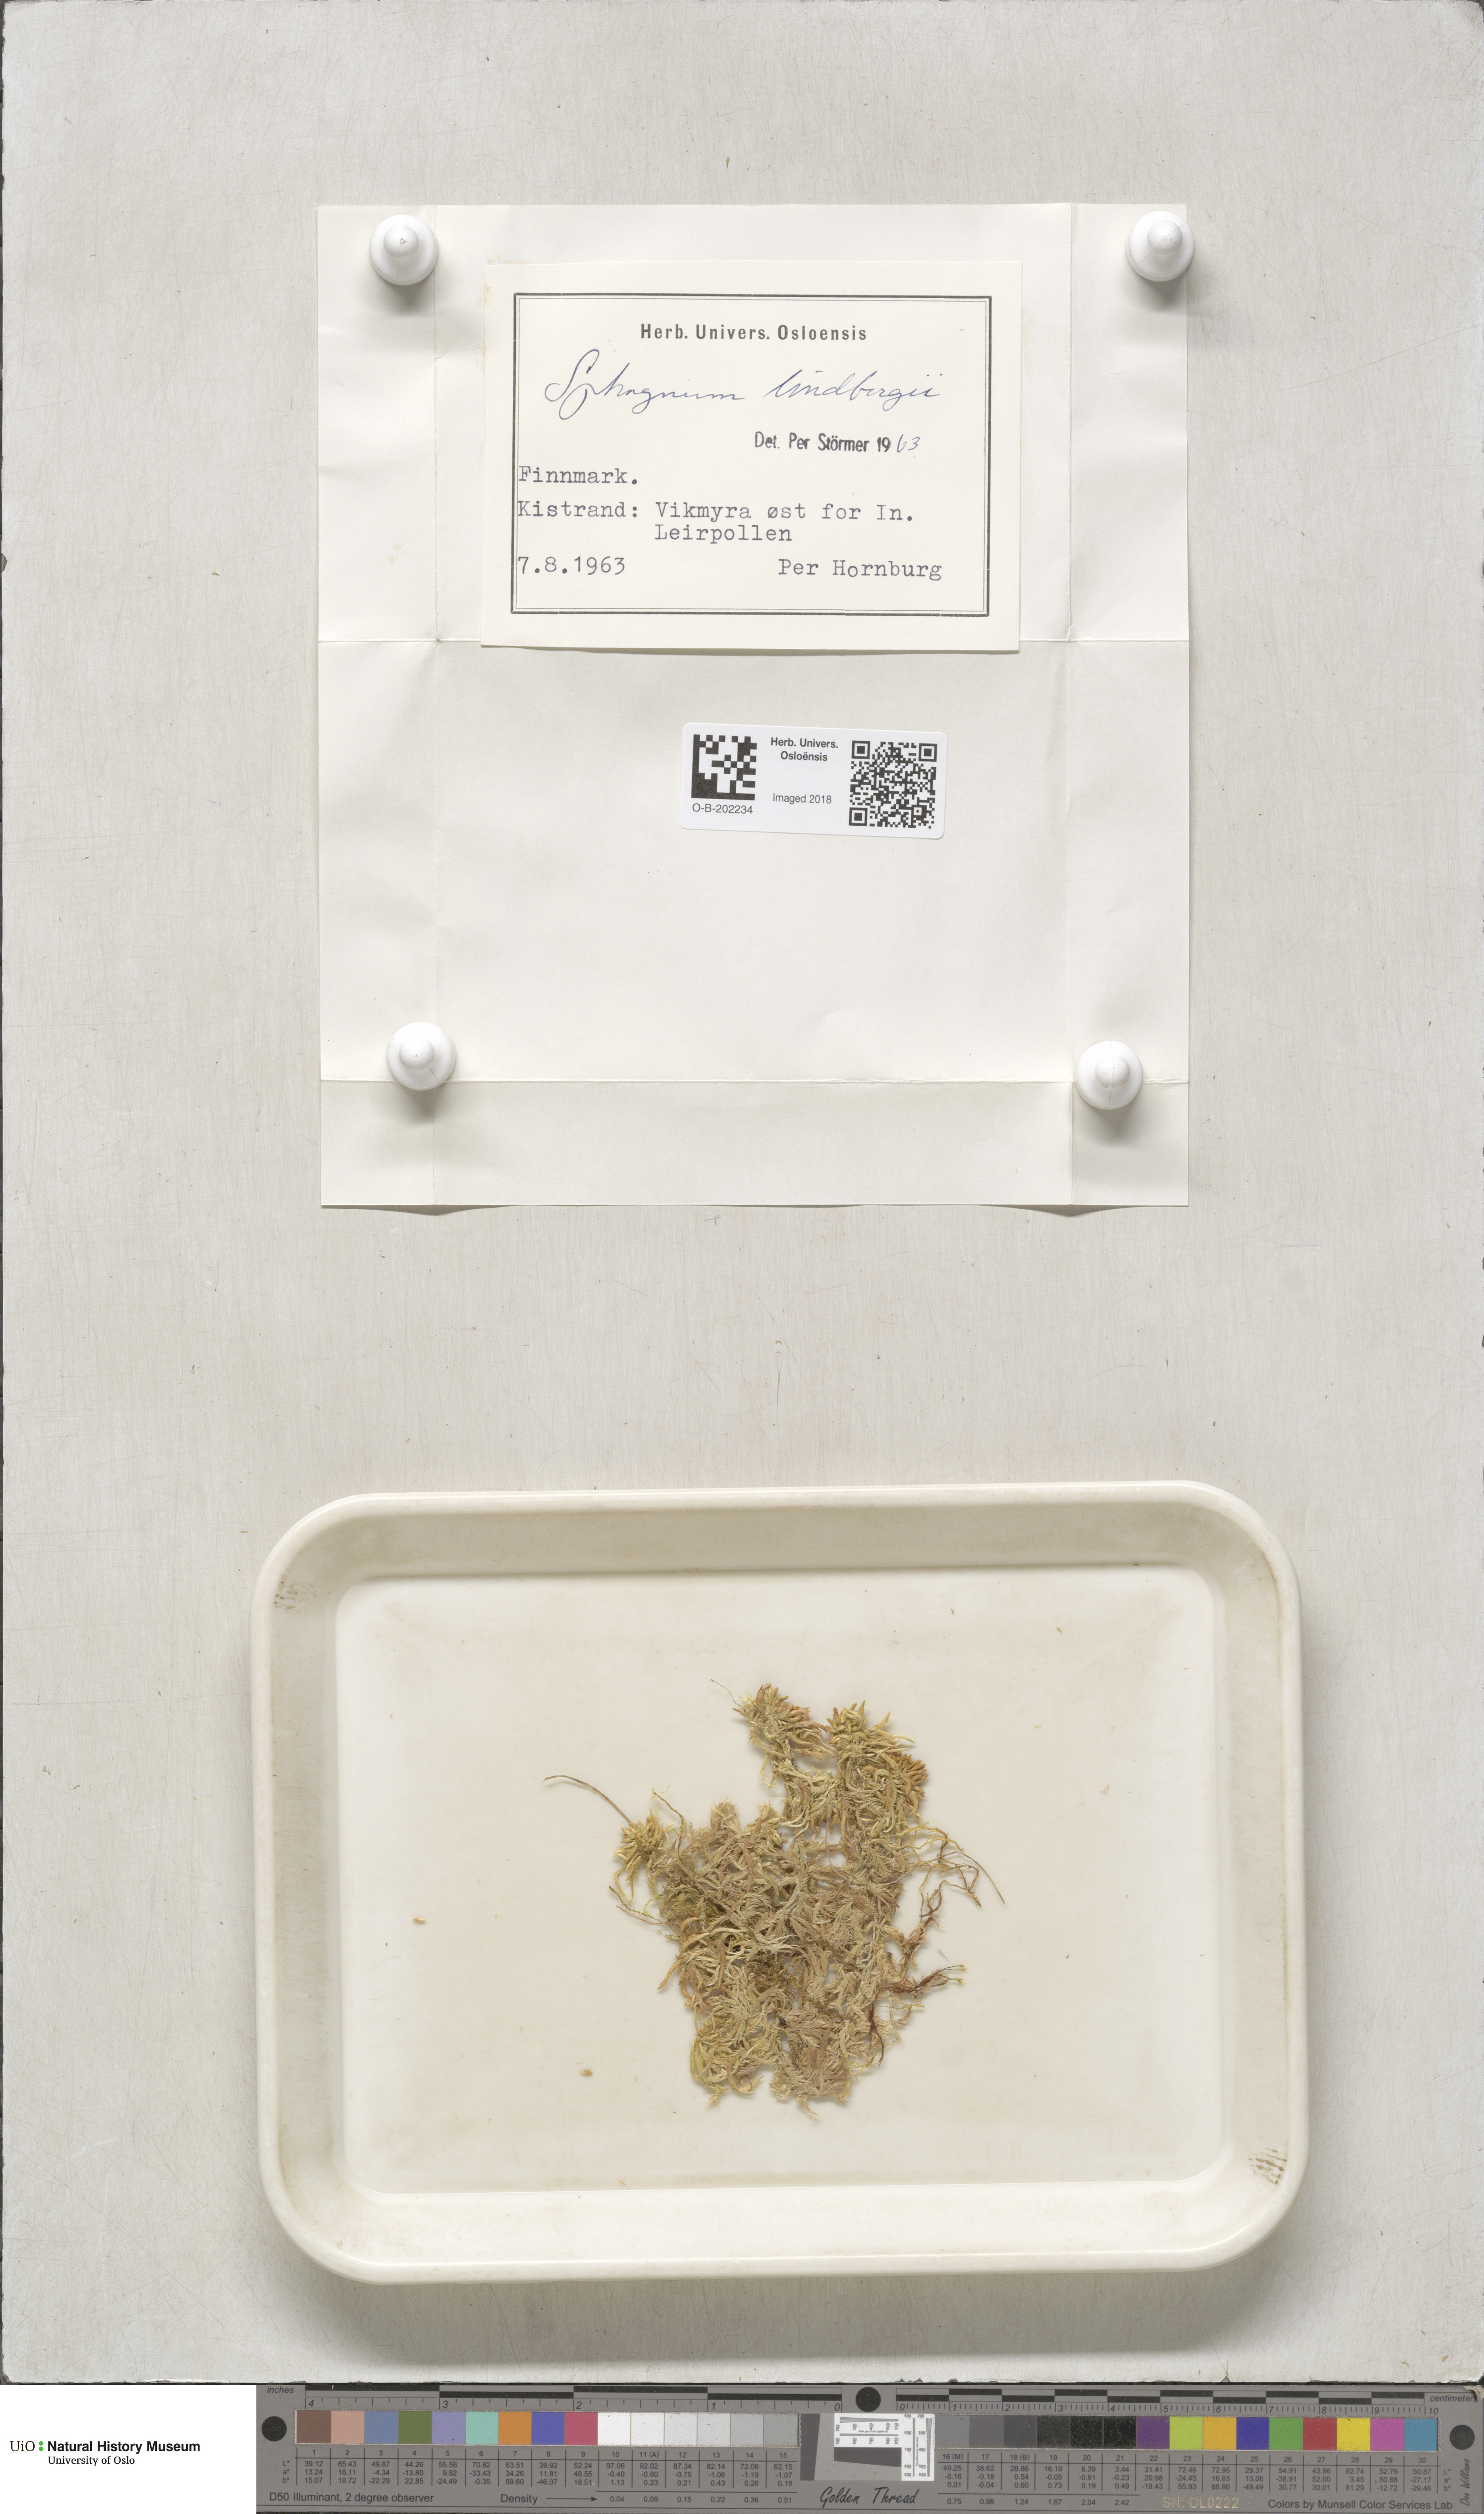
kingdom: Plantae
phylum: Bryophyta
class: Sphagnopsida
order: Sphagnales
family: Sphagnaceae
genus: Sphagnum
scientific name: Sphagnum lindbergii
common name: Lindberg's peat moss
